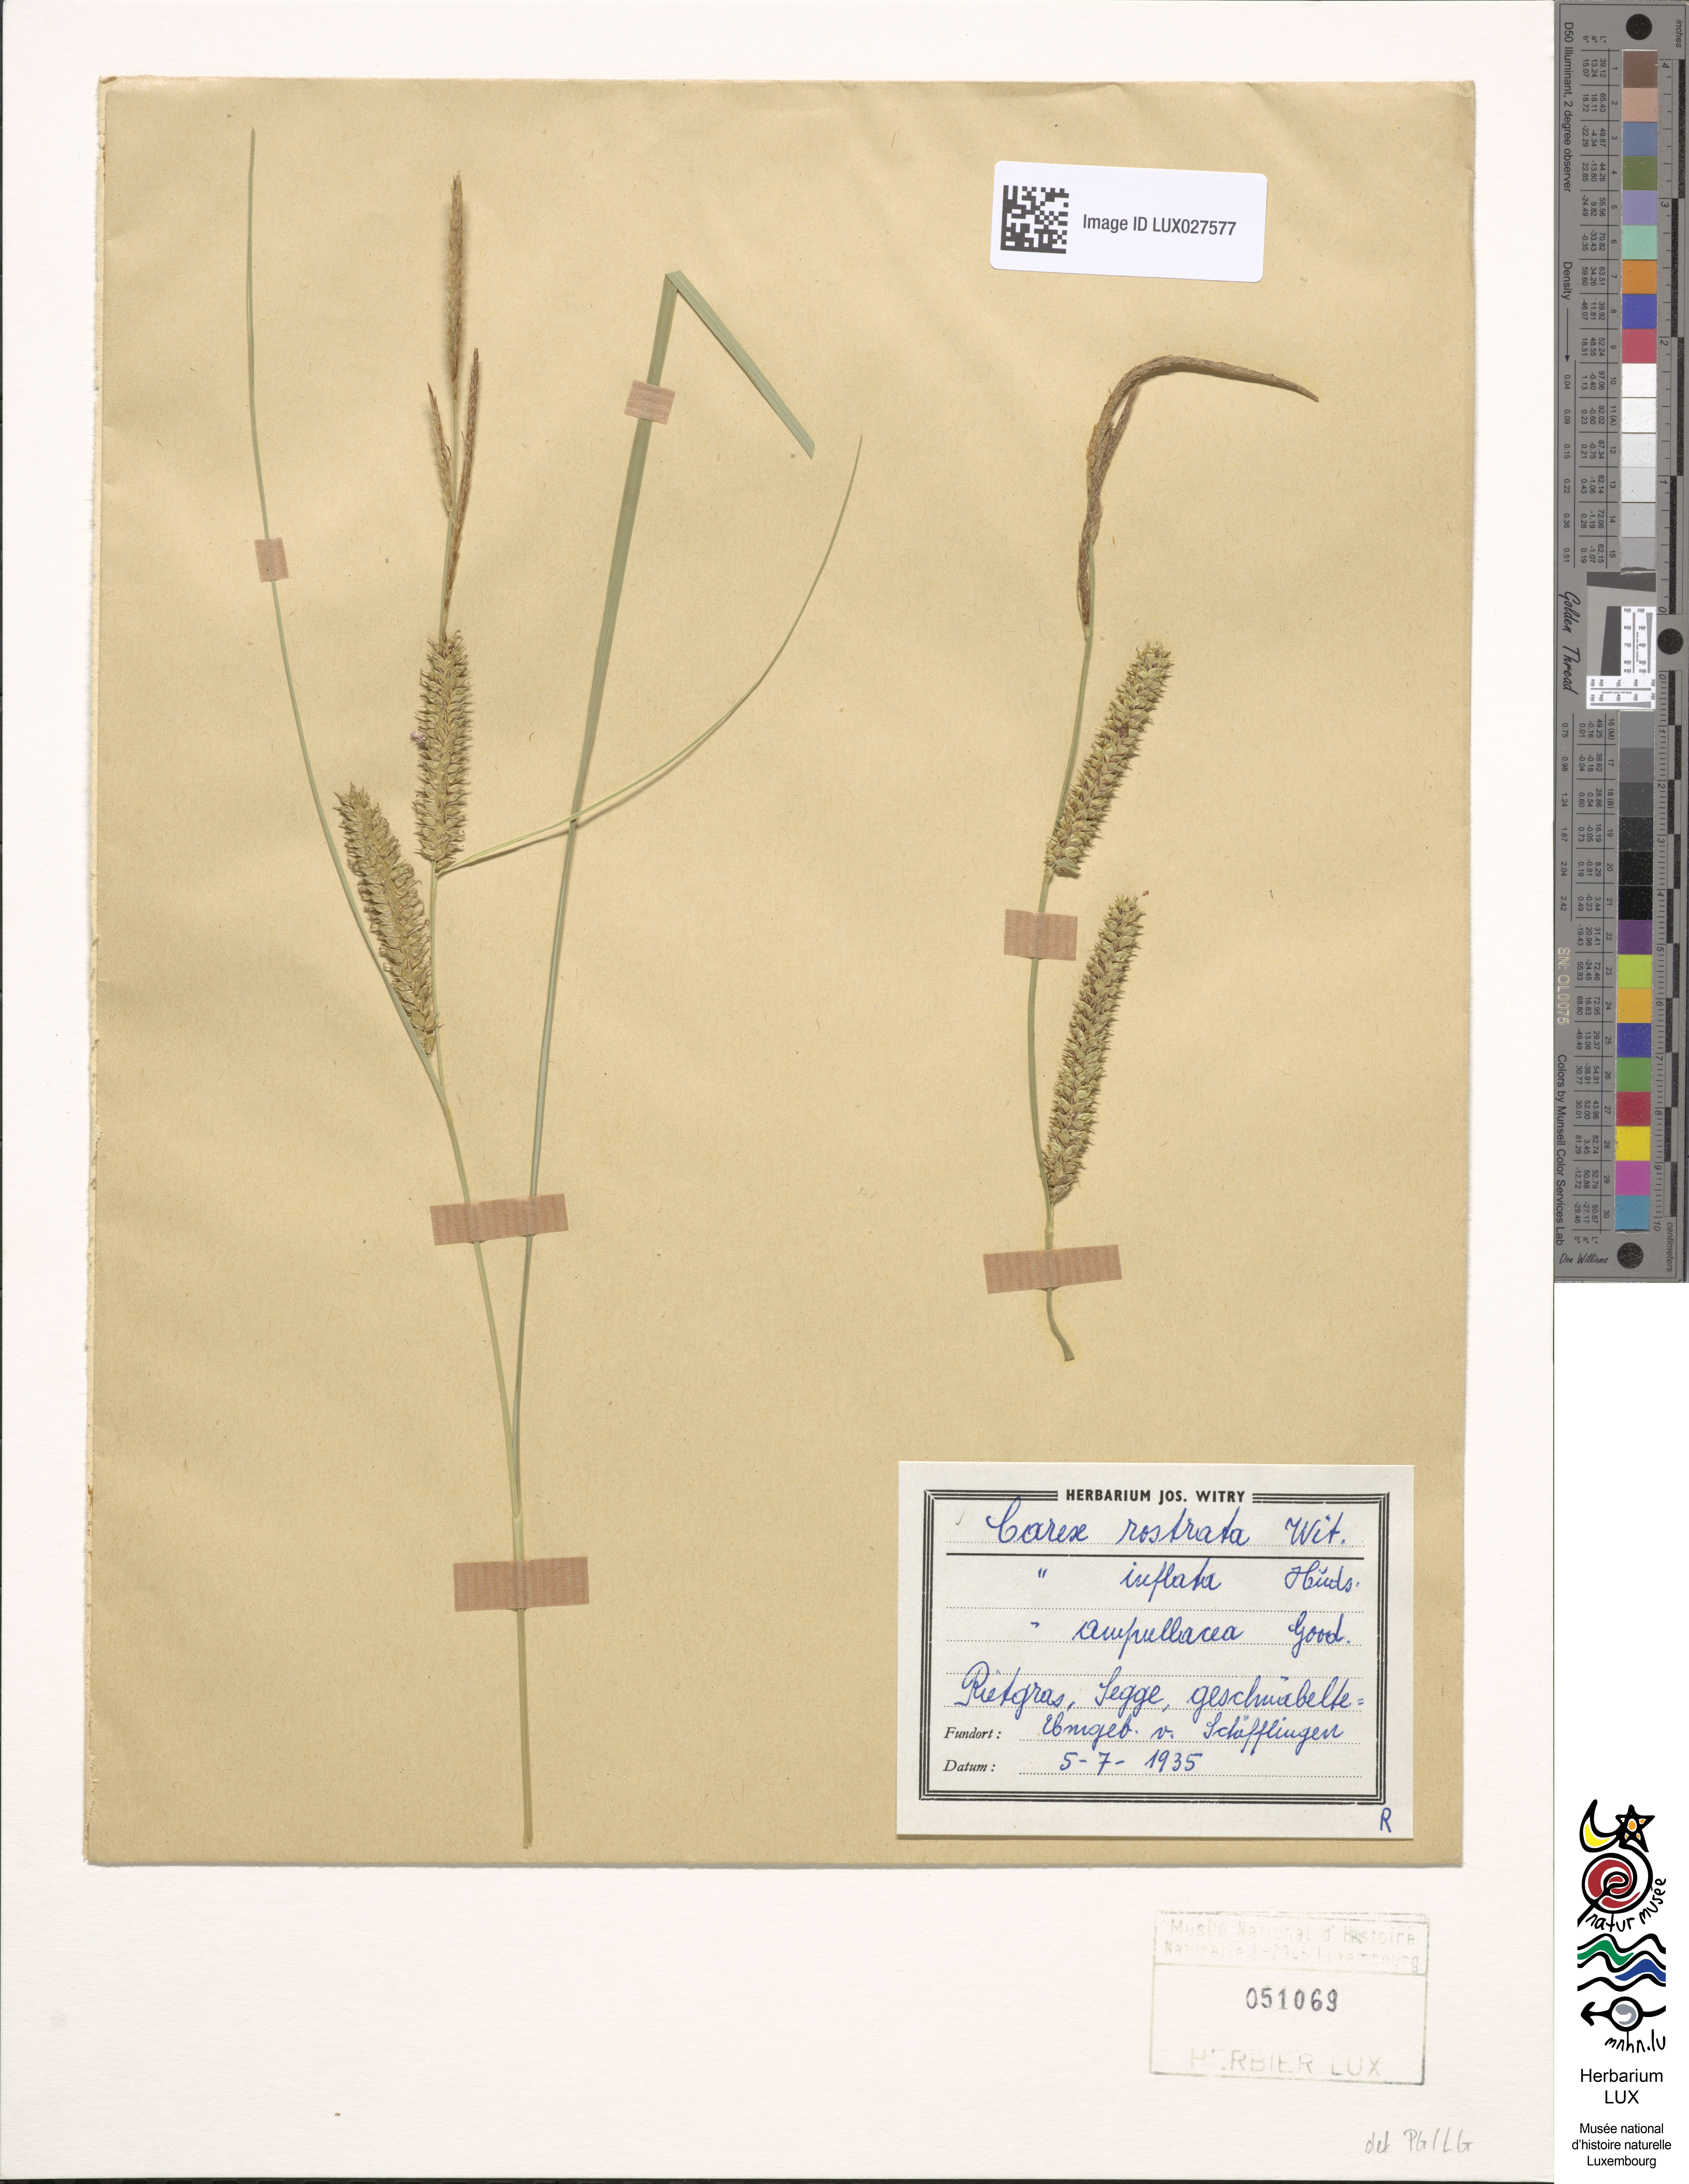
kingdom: Plantae
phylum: Tracheophyta
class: Liliopsida
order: Poales
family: Cyperaceae
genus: Carex
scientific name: Carex rostrata
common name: Bottle sedge
